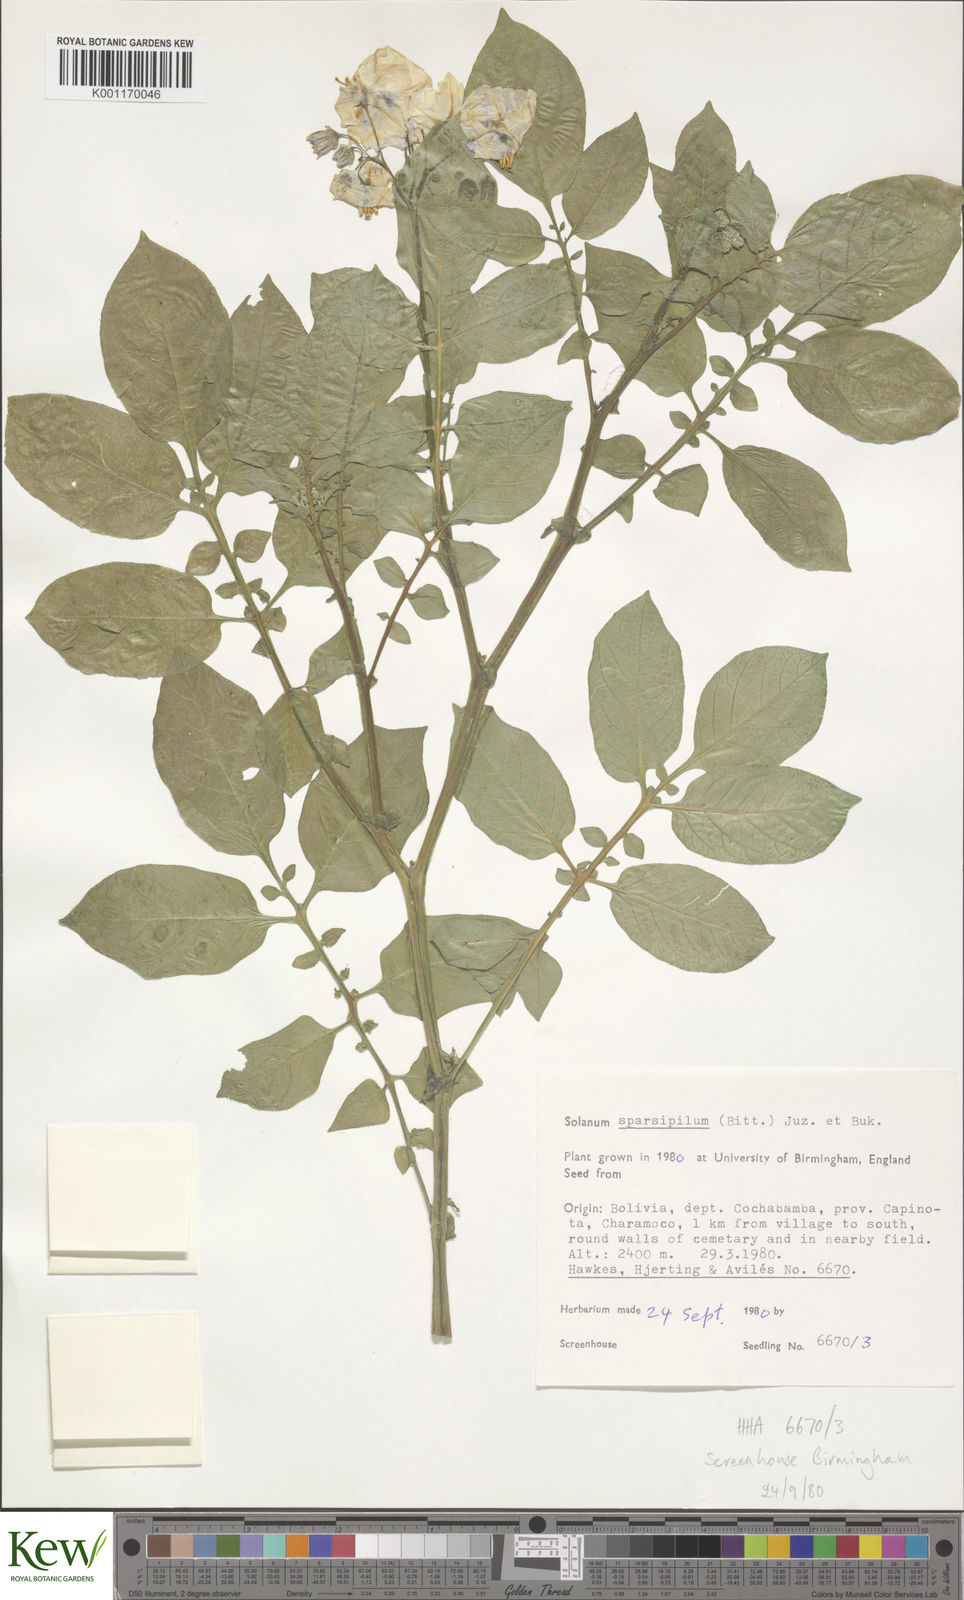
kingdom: Plantae
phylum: Tracheophyta
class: Magnoliopsida
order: Solanales
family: Solanaceae
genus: Solanum
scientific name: Solanum brevicaule
